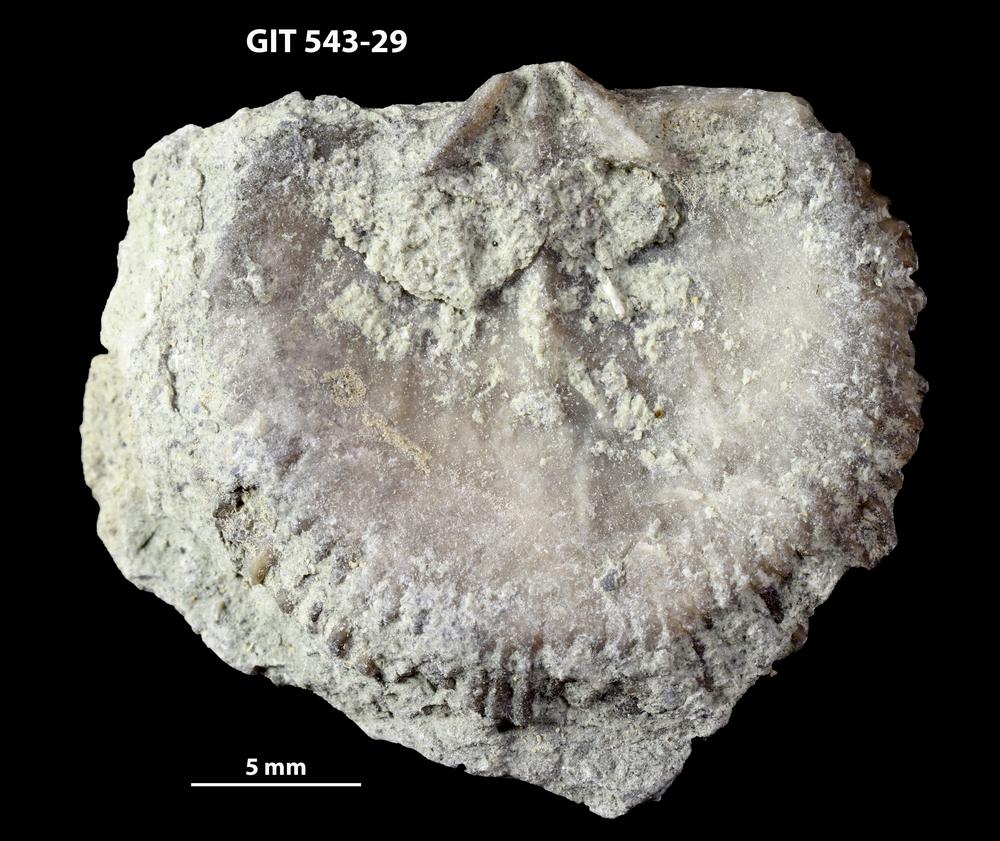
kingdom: Animalia
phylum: Brachiopoda
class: Rhynchonellata
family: Clitambonitidae
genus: Clitambonites
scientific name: Clitambonites Orthisina schmidti
